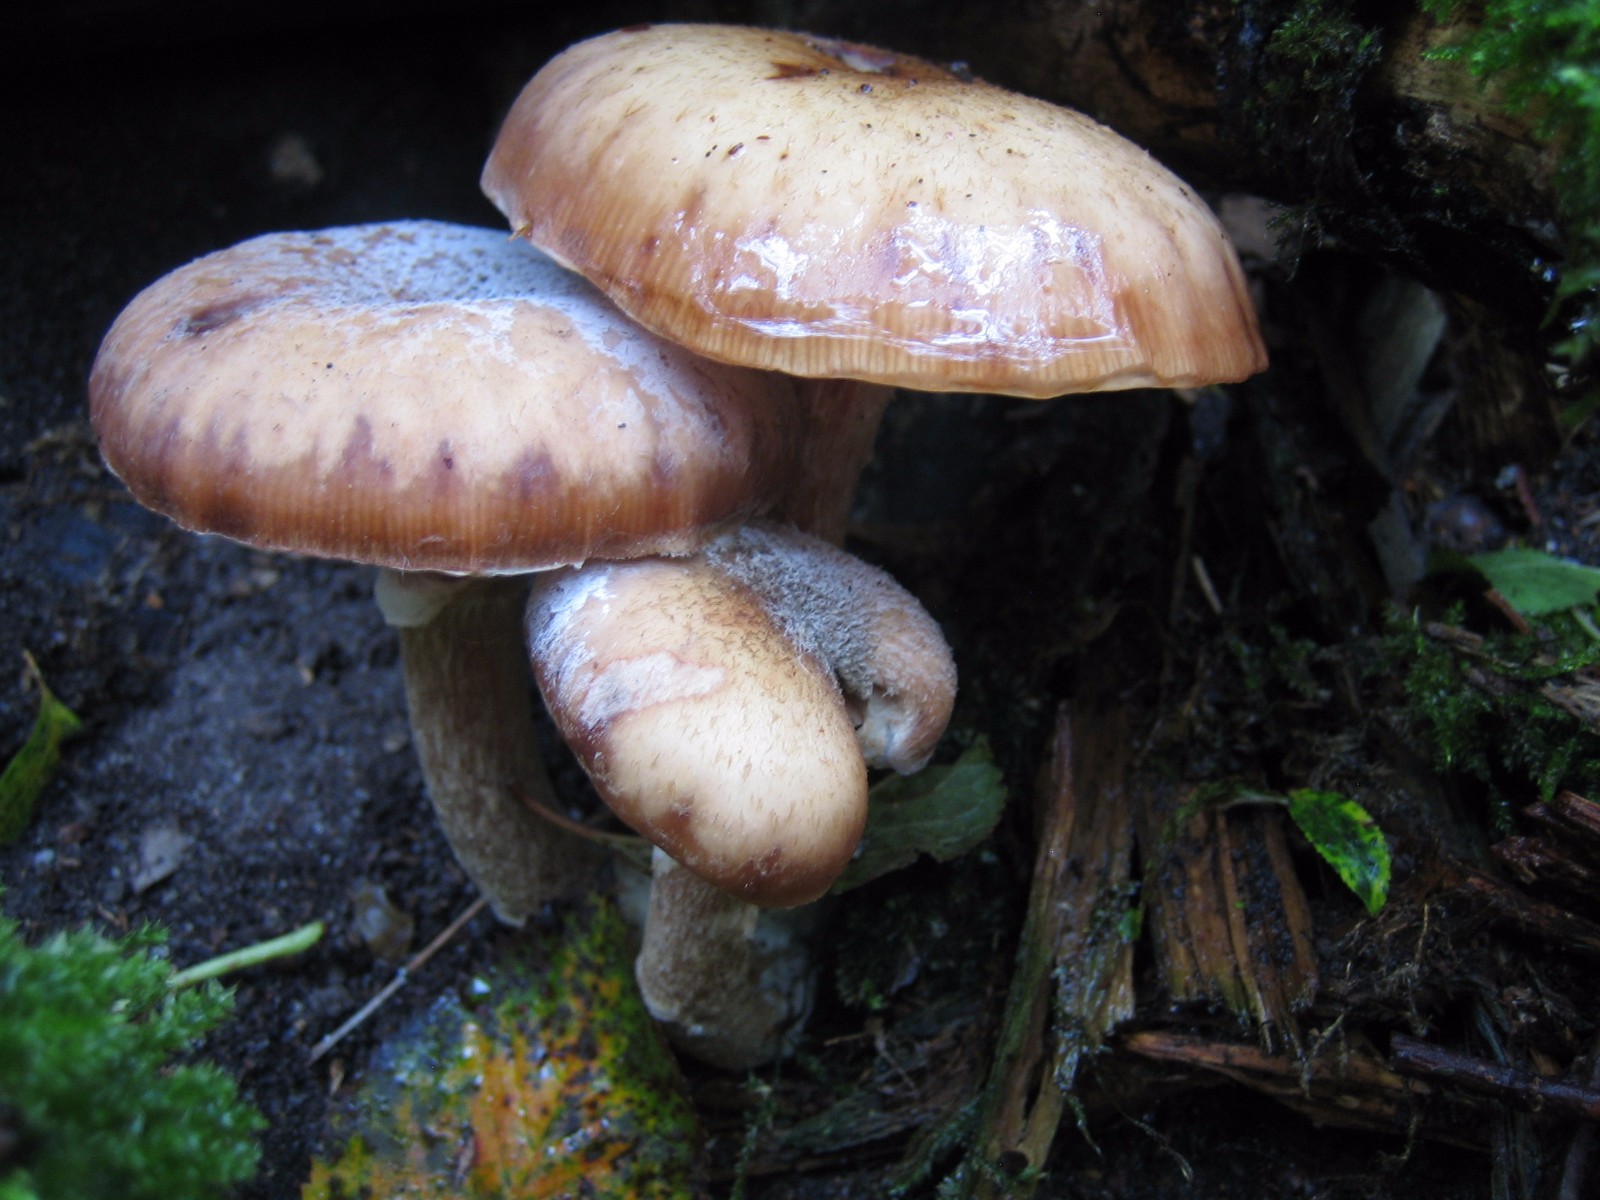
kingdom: Fungi
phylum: Basidiomycota
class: Agaricomycetes
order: Agaricales
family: Physalacriaceae
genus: Armillaria
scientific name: Armillaria
